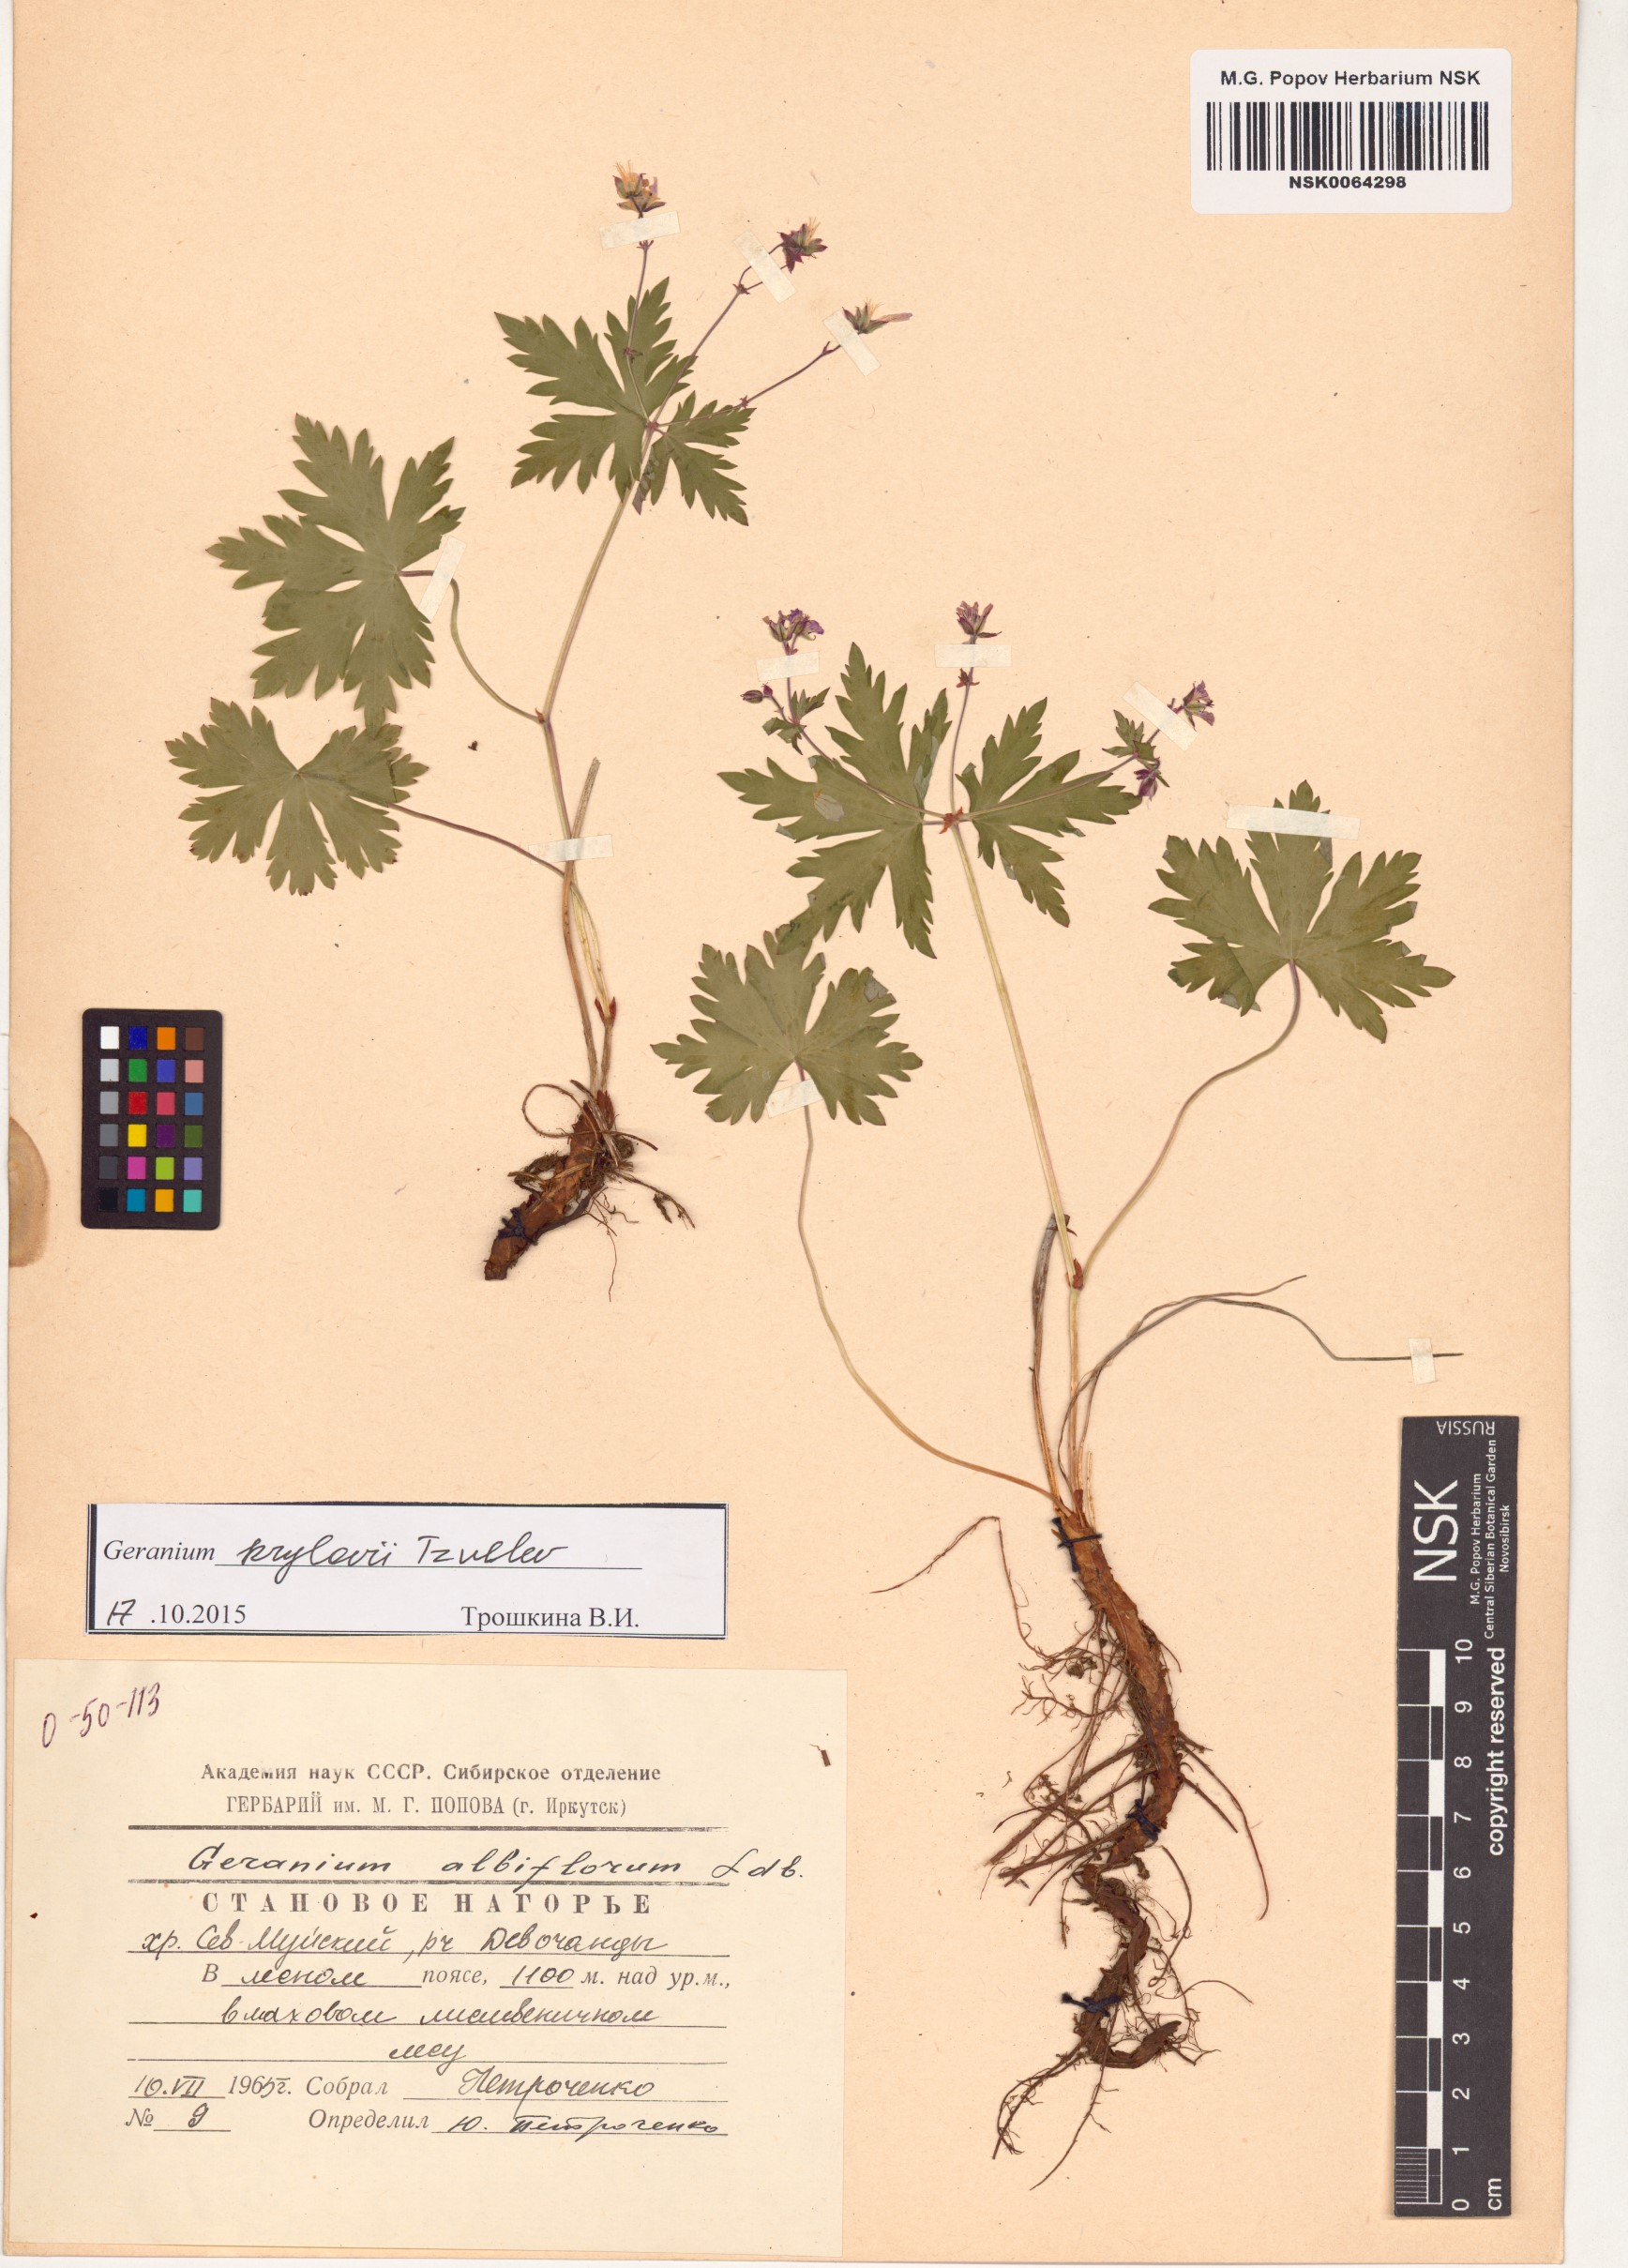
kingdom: Plantae
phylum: Tracheophyta
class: Magnoliopsida
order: Geraniales
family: Geraniaceae
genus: Geranium
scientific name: Geranium sylvaticum
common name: Wood crane's-bill
